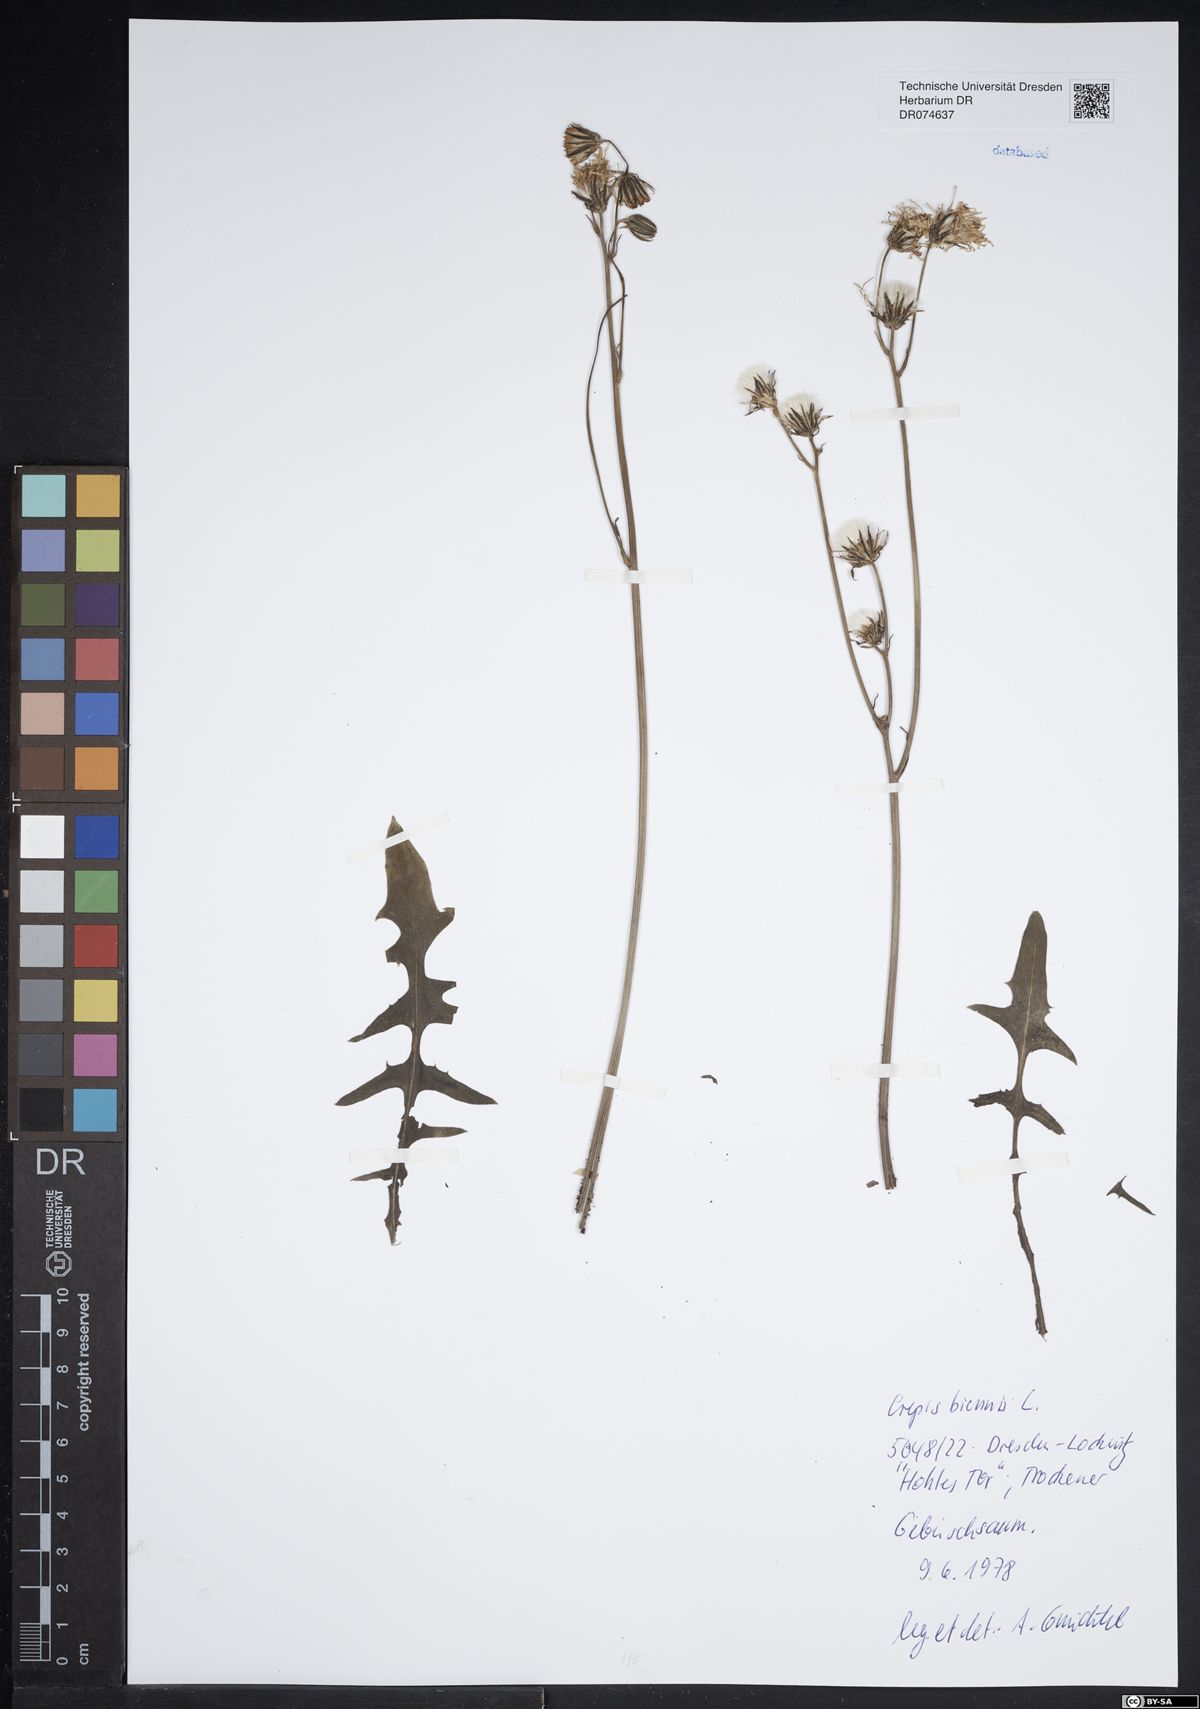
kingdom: Plantae
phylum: Tracheophyta
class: Magnoliopsida
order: Asterales
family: Asteraceae
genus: Crepis
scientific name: Crepis biennis
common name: Rough hawk's-beard
